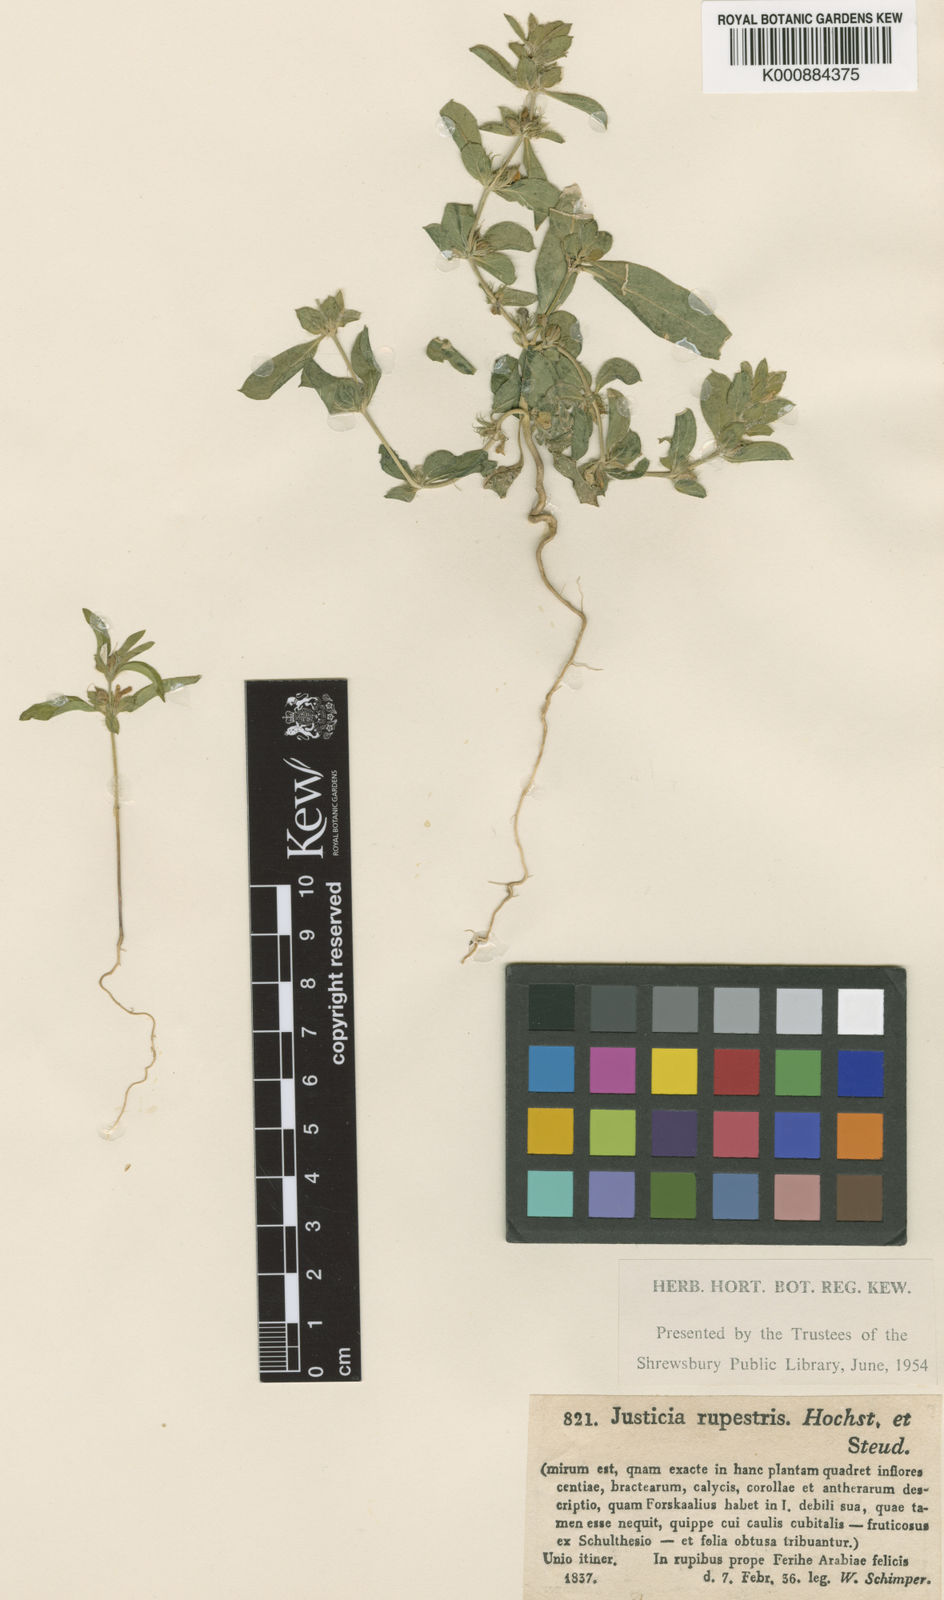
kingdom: Plantae
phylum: Tracheophyta
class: Magnoliopsida
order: Lamiales
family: Acanthaceae
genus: Monechma
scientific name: Monechma debile
